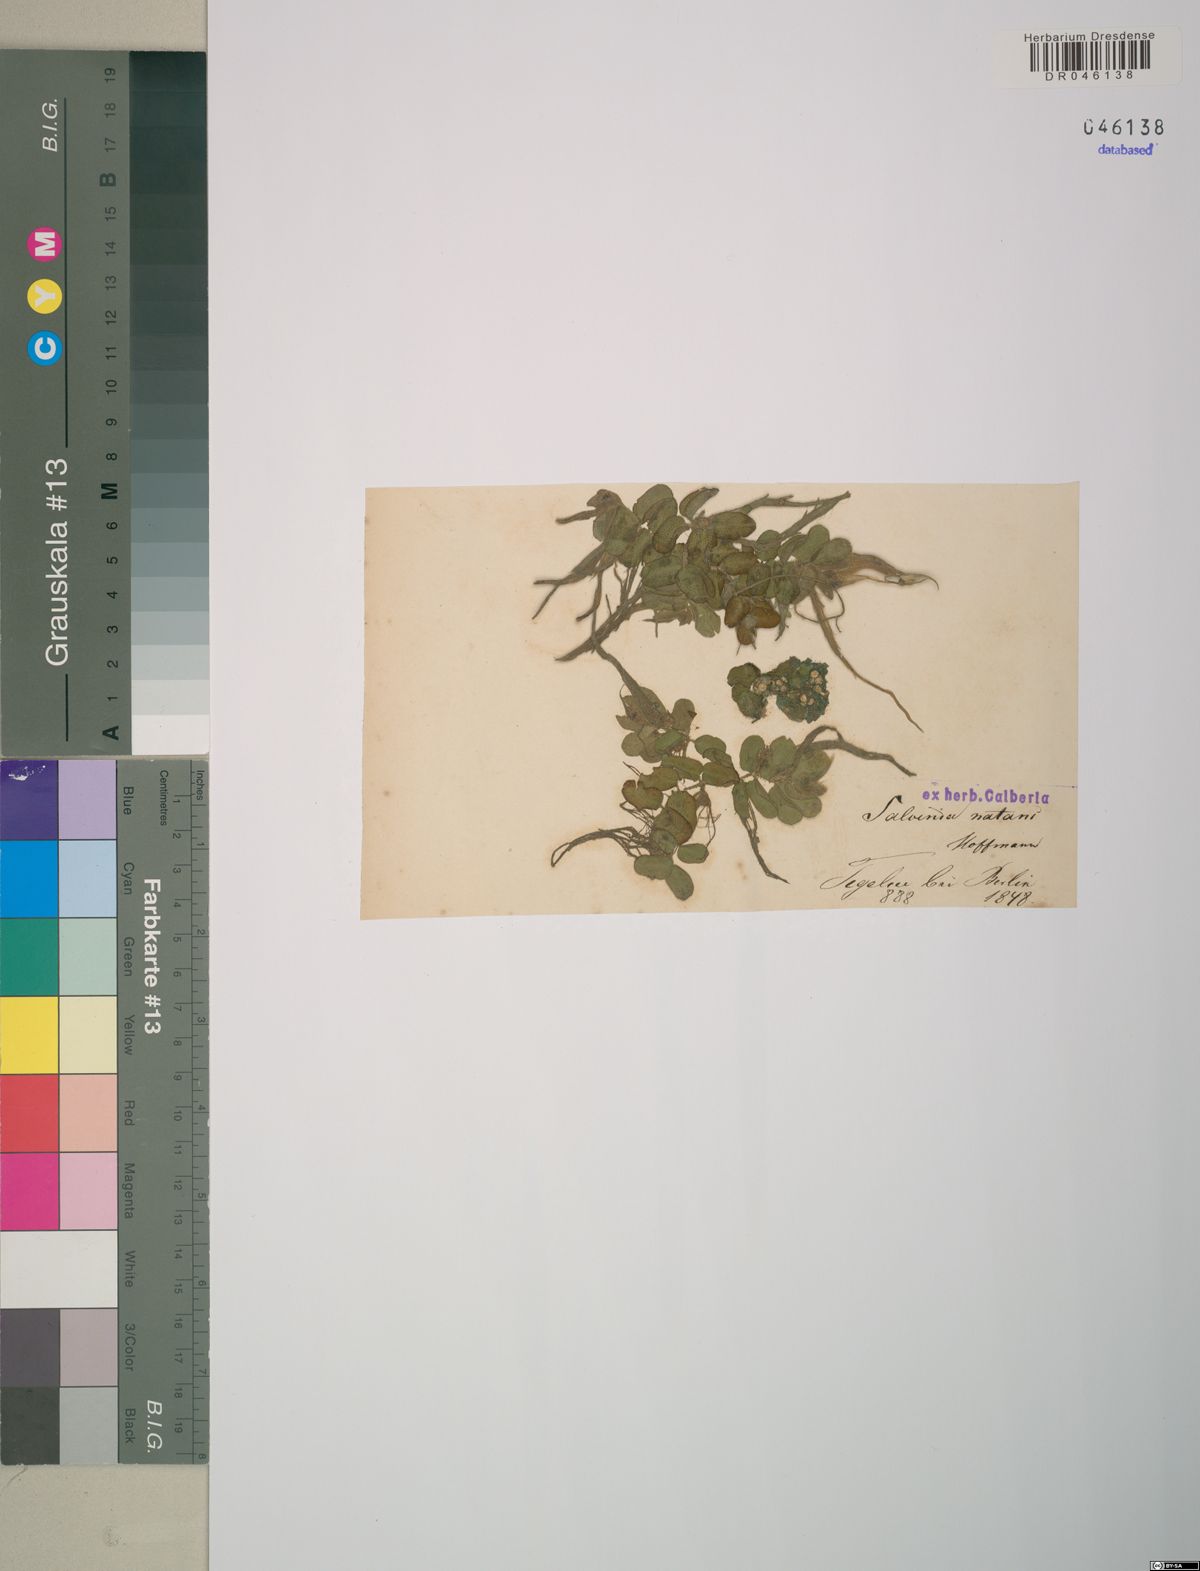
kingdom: Plantae
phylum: Tracheophyta
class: Polypodiopsida
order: Salviniales
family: Salviniaceae
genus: Salvinia
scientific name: Salvinia natans
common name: Floating fern
